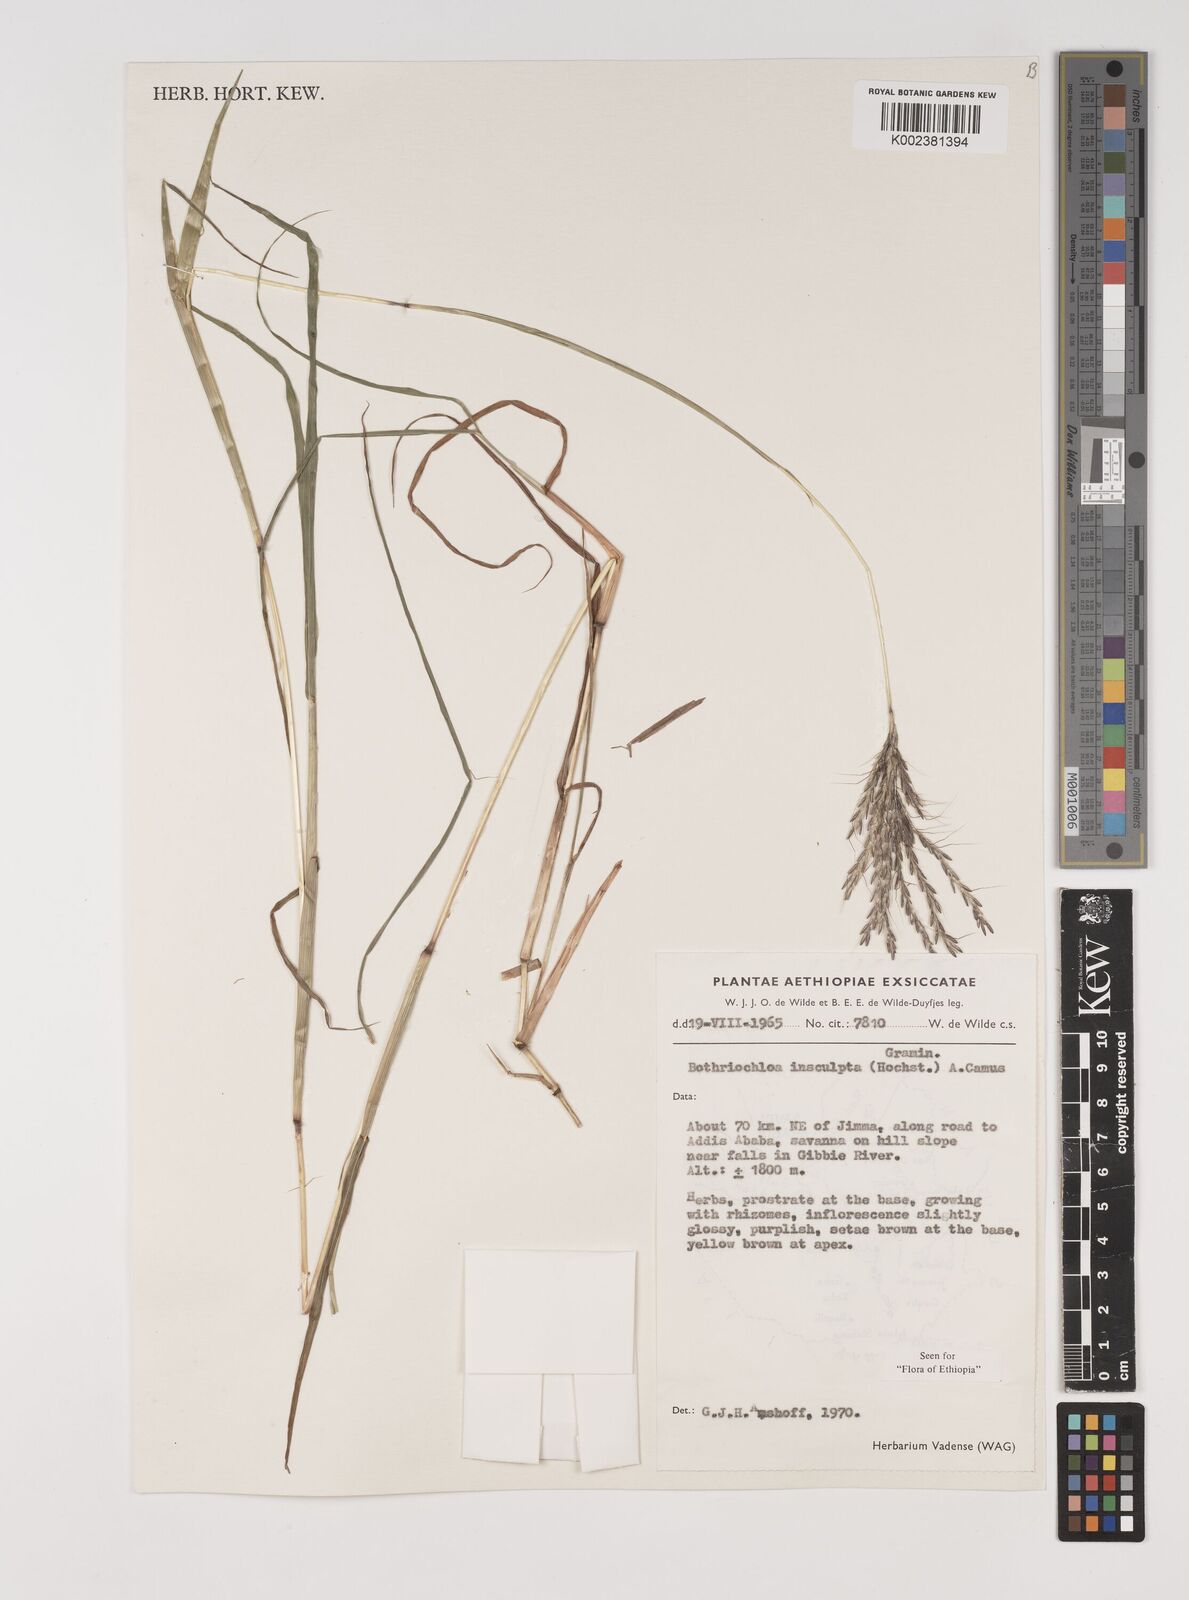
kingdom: Plantae
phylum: Tracheophyta
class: Liliopsida
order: Poales
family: Poaceae
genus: Bothriochloa
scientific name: Bothriochloa insculpta
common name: Creeping-bluegrass
